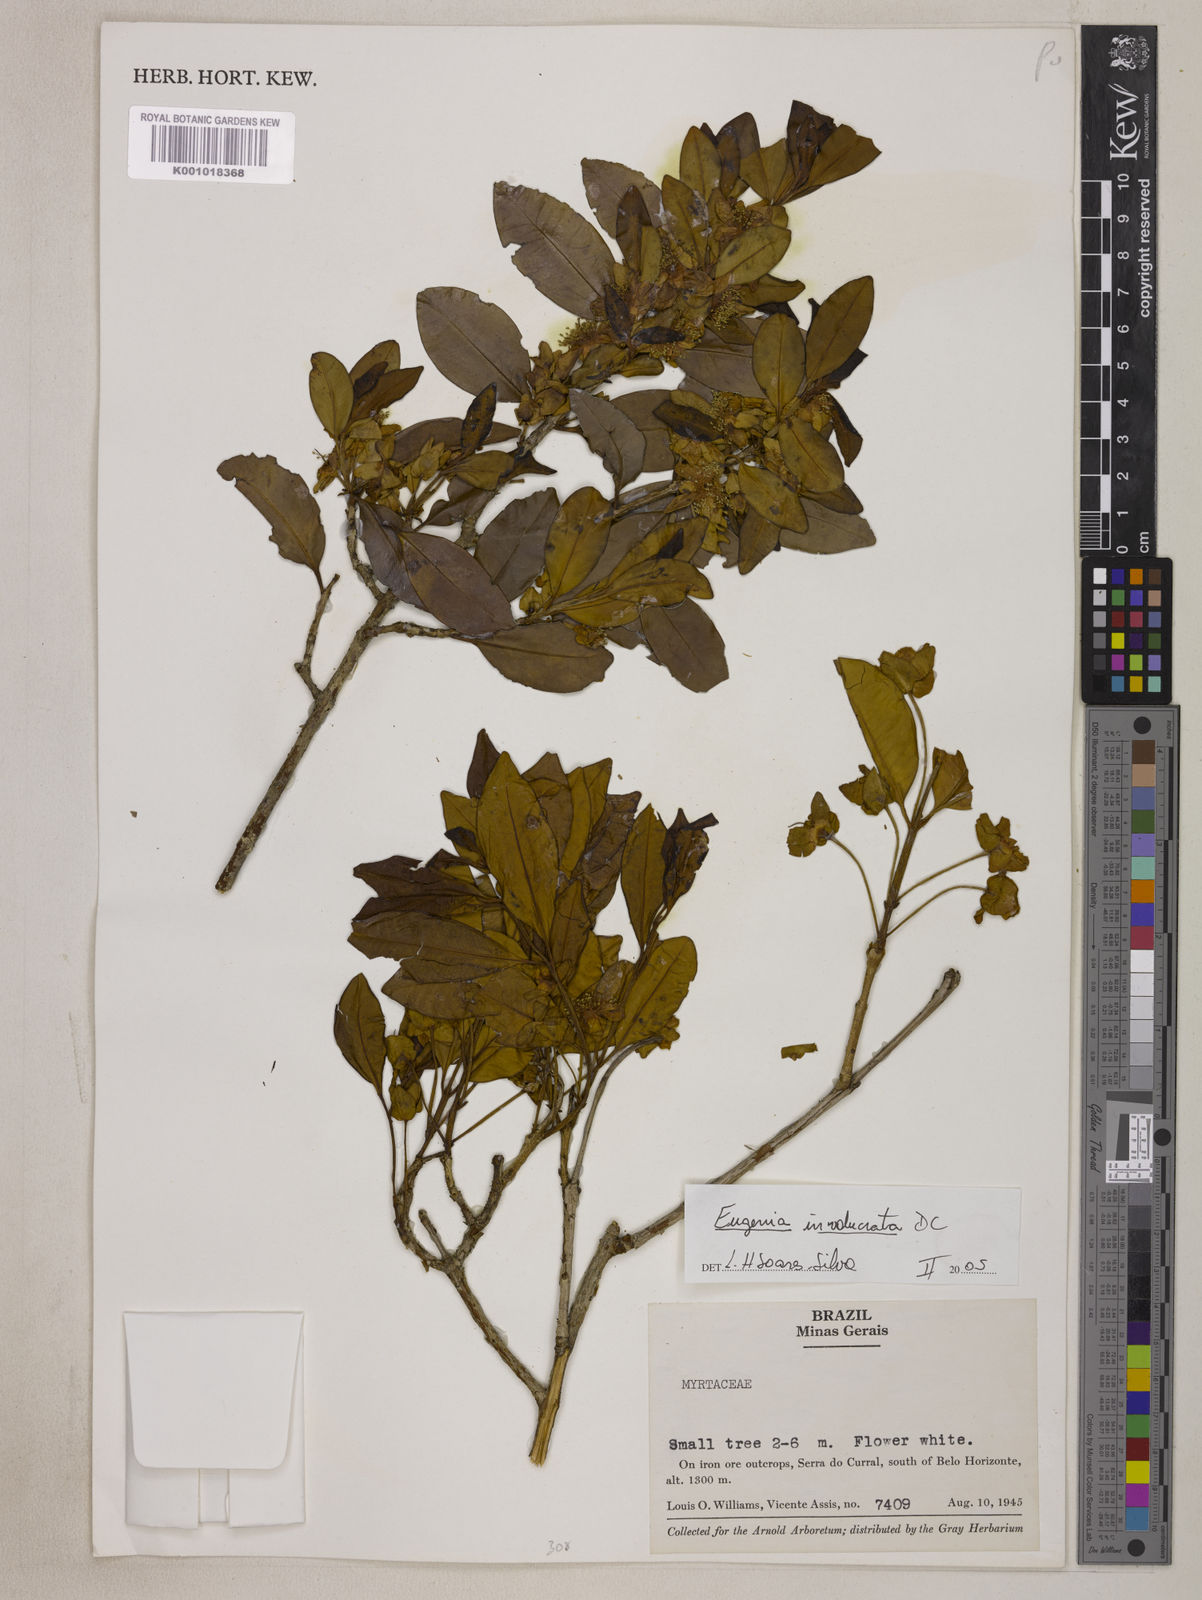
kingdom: Plantae
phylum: Tracheophyta
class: Magnoliopsida
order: Myrtales
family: Myrtaceae
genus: Eugenia
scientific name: Eugenia involucrata
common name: Cherry-of-the-rio grande
